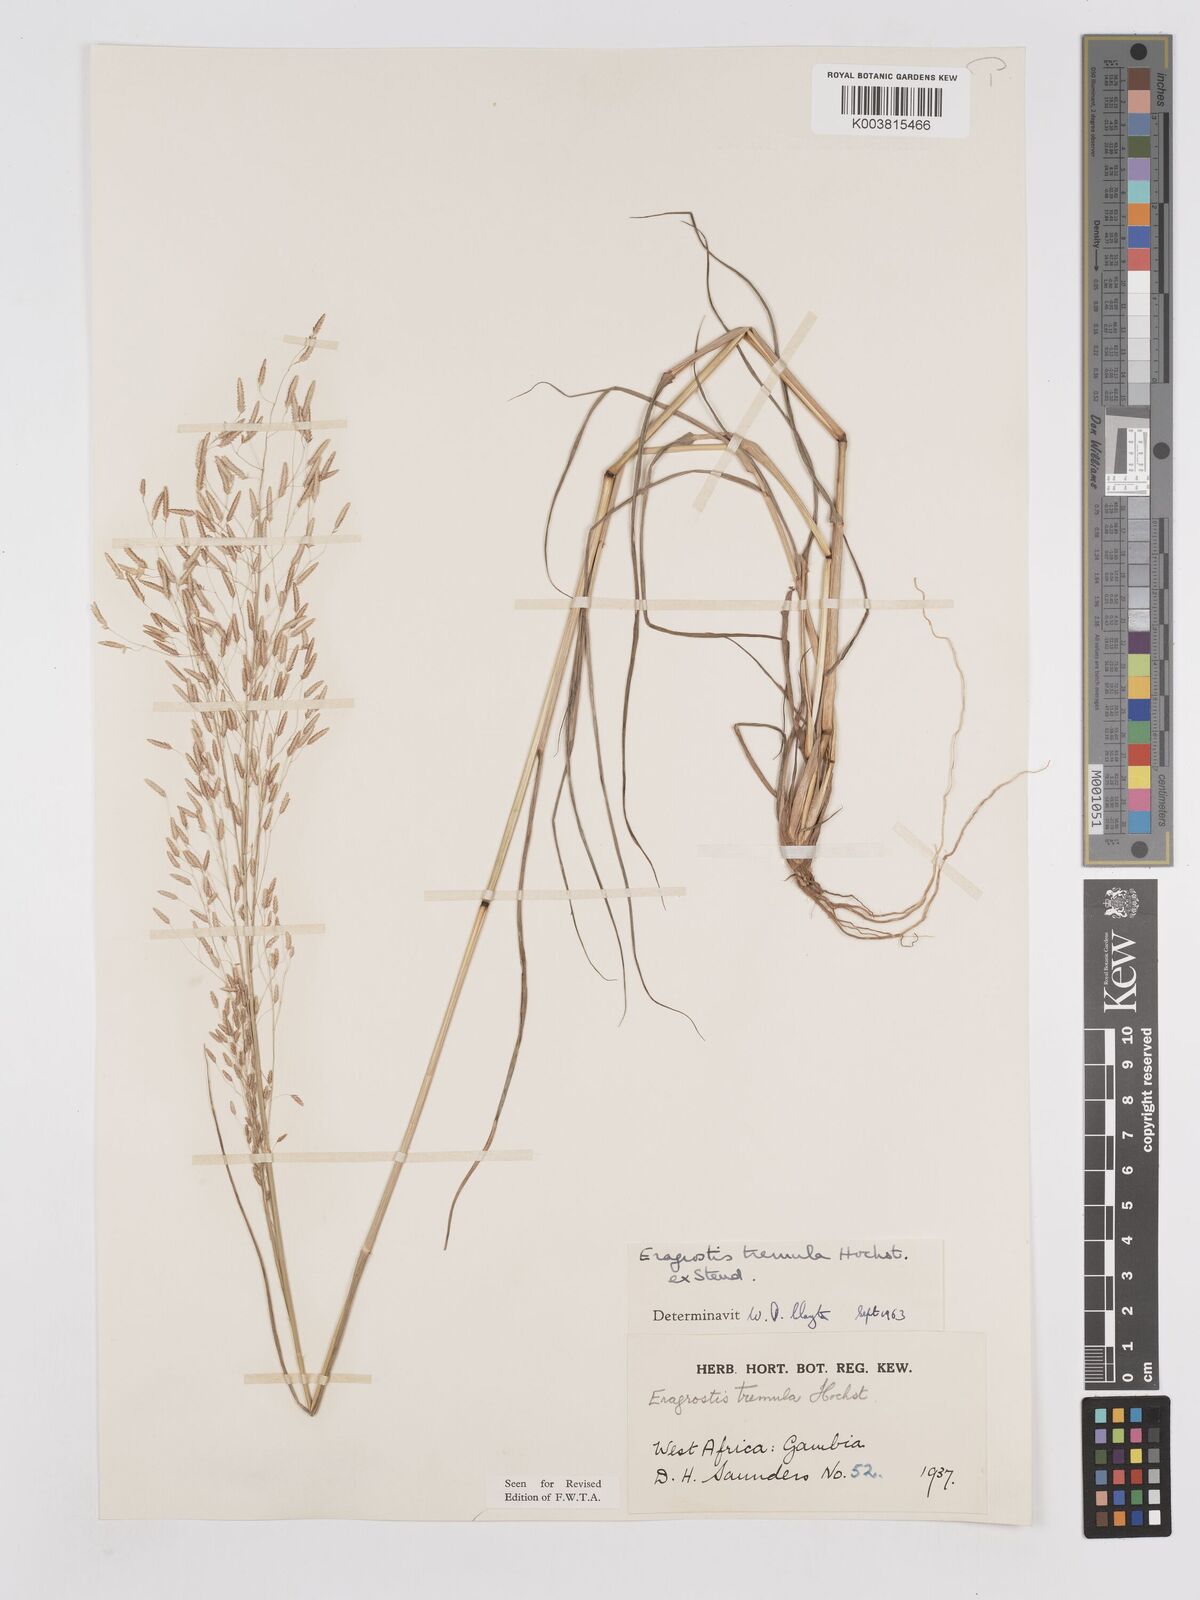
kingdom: Plantae
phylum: Tracheophyta
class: Liliopsida
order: Poales
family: Poaceae
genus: Eragrostis
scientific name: Eragrostis tremula
